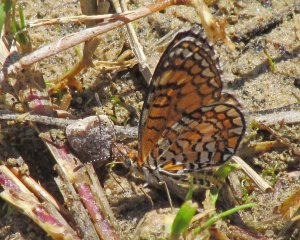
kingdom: Animalia
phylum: Arthropoda
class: Insecta
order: Lepidoptera
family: Nymphalidae
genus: Dymasia
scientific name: Dymasia dymas
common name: Tiny Checkerspot
